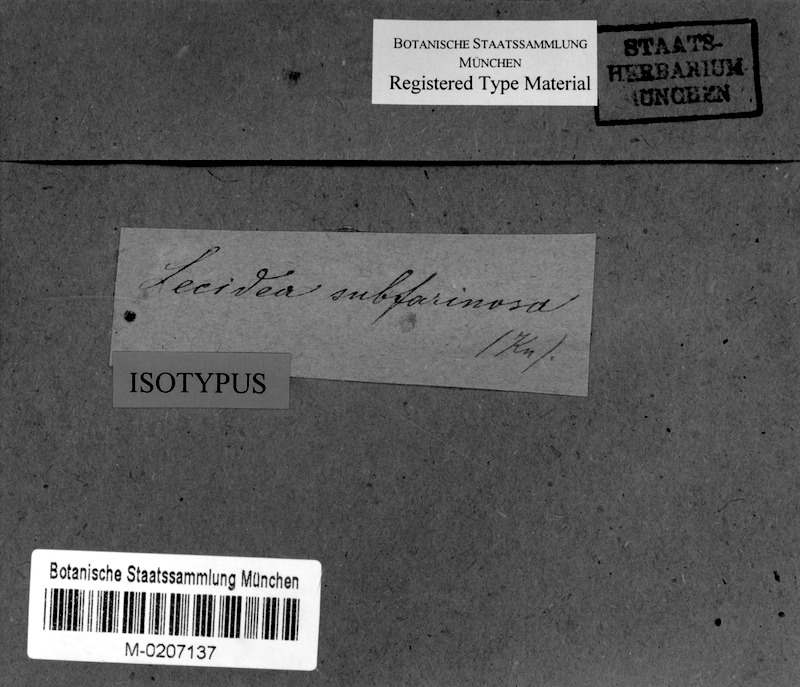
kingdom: Fungi
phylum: Ascomycota
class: Arthoniomycetes
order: Arthoniales
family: Roccellaceae
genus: Lecanactis
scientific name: Lecanactis subfarinosa
